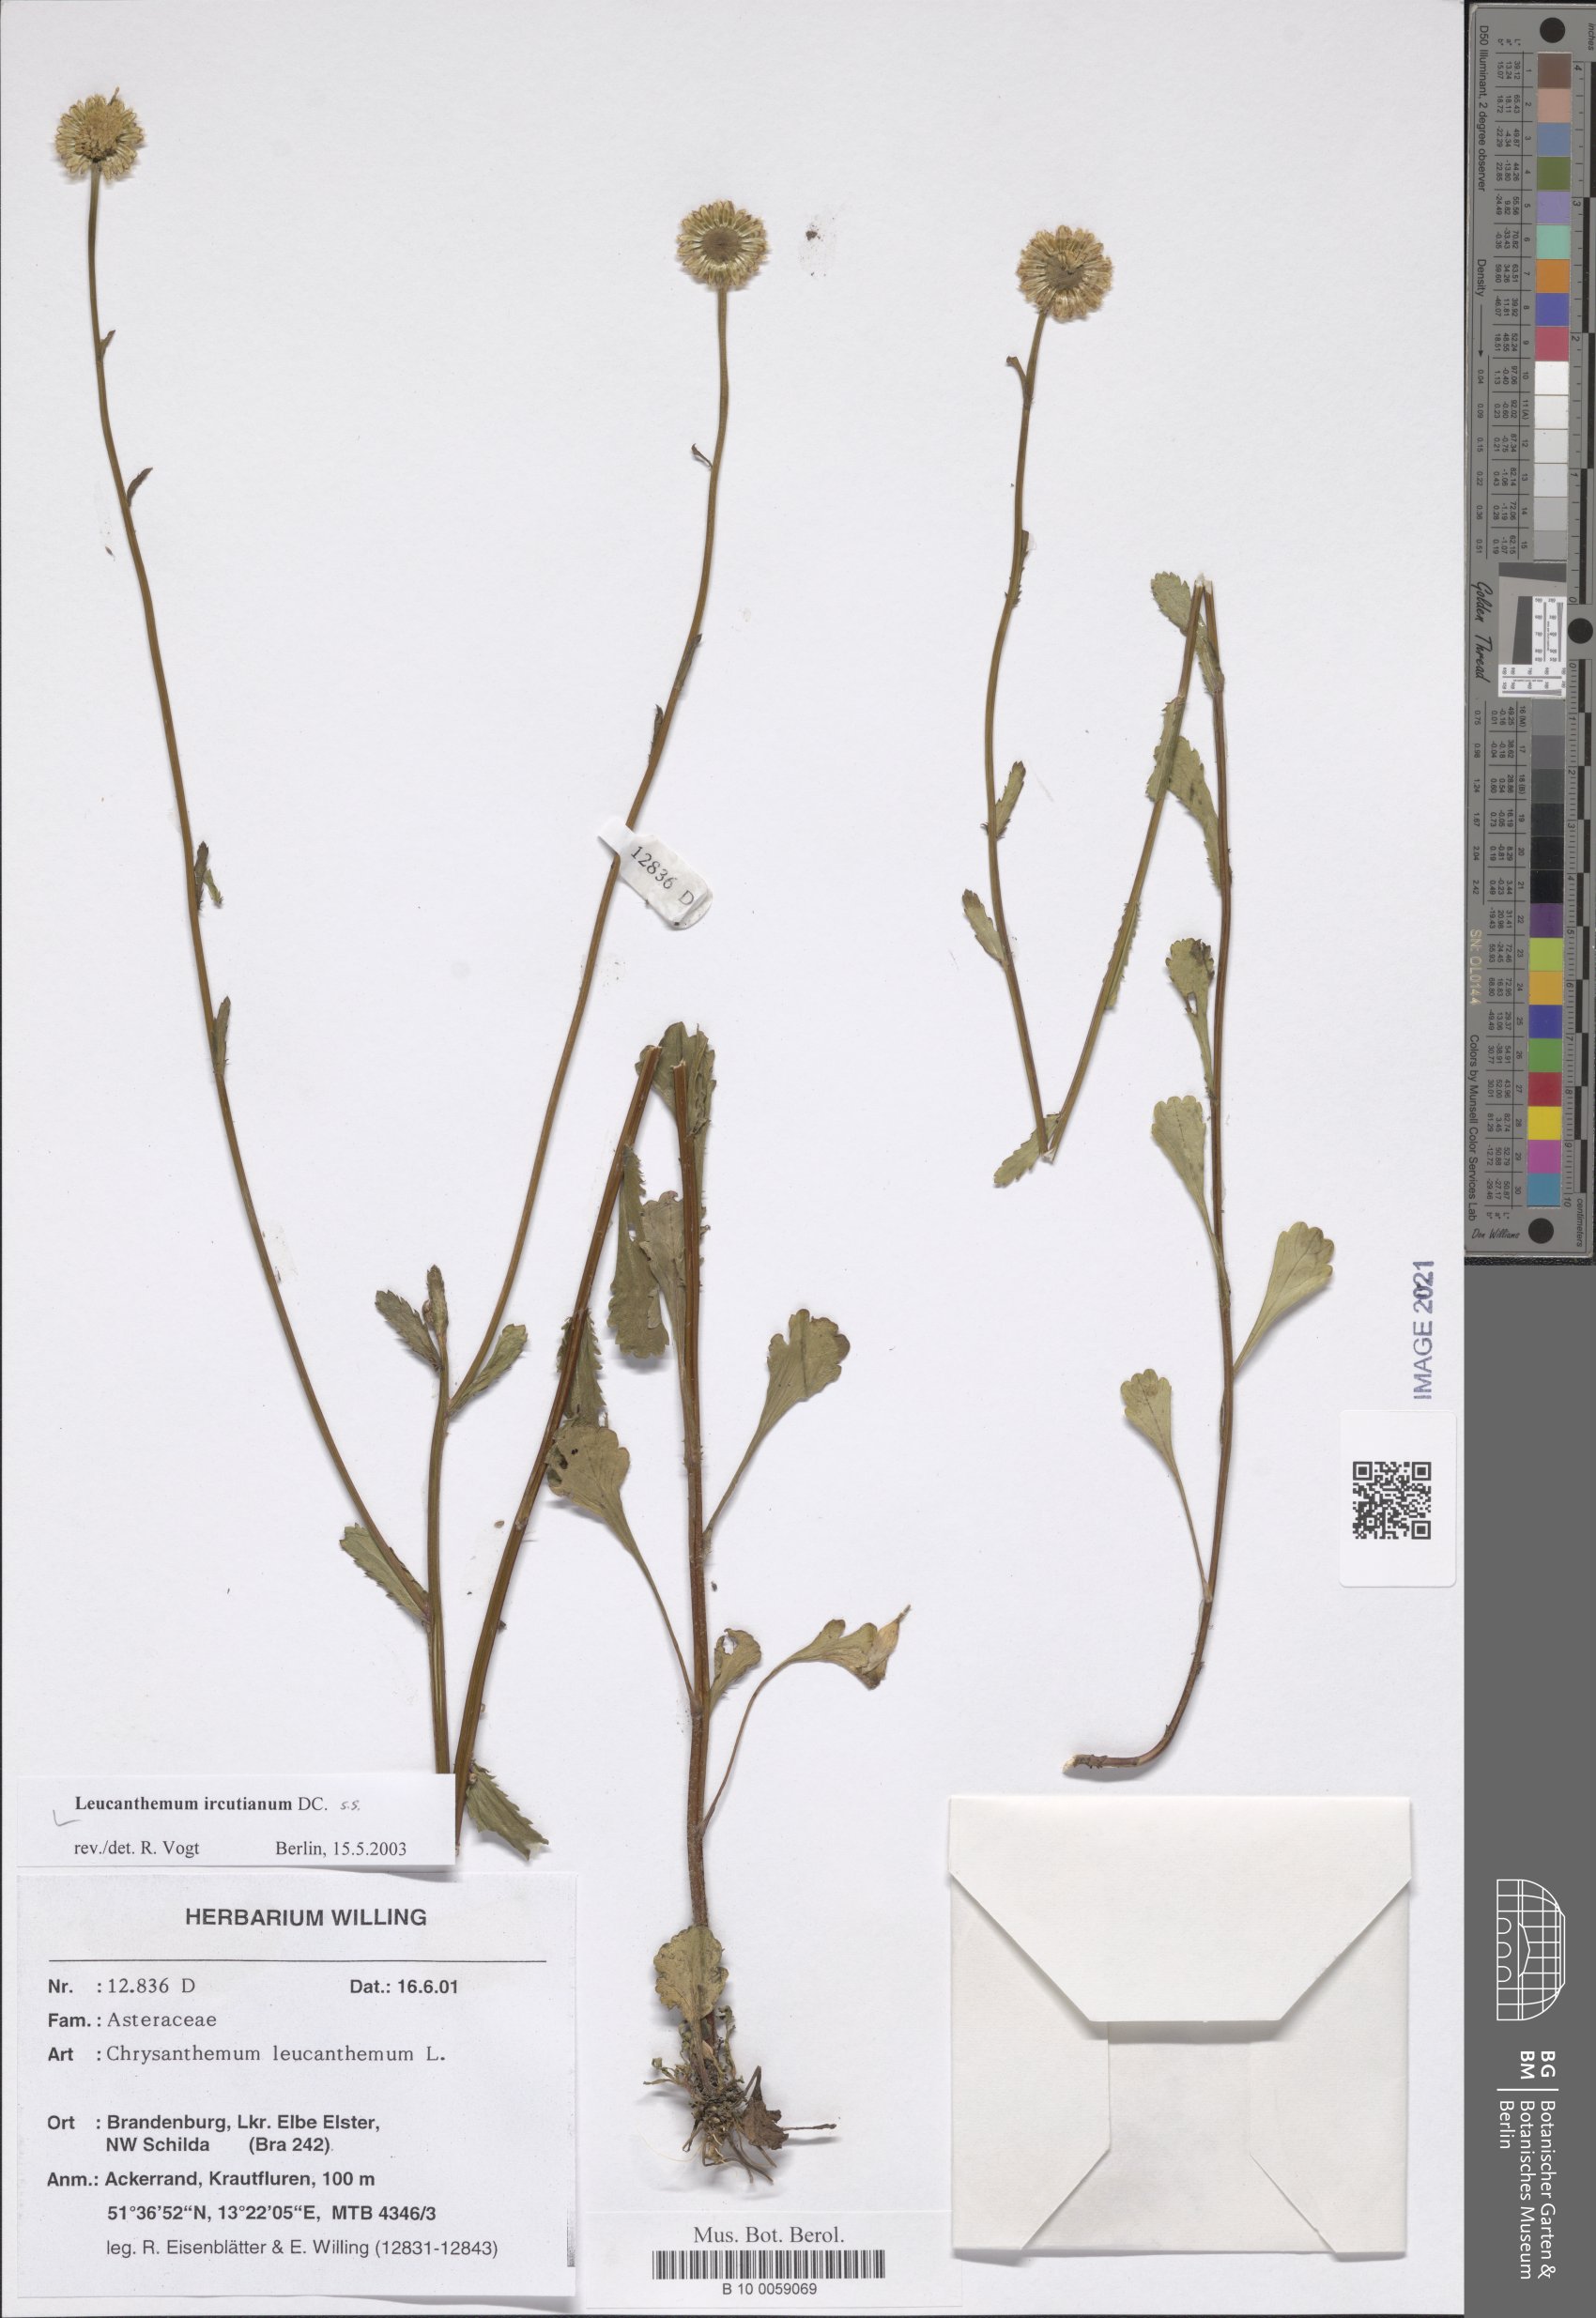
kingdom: Plantae
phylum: Tracheophyta
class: Magnoliopsida
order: Asterales
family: Asteraceae
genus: Leucanthemum
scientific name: Leucanthemum ircutianum
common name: Daisy
